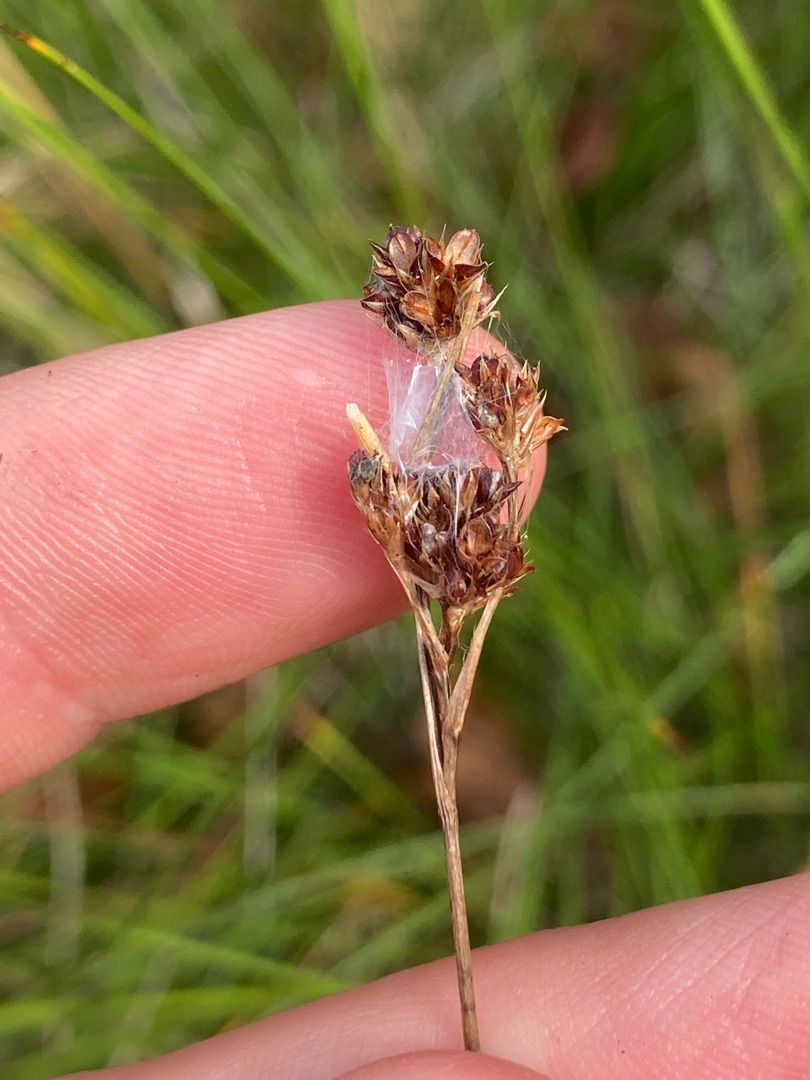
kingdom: Plantae
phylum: Tracheophyta
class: Liliopsida
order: Poales
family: Juncaceae
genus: Luzula
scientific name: Luzula congesta
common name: Hoved-frytle
